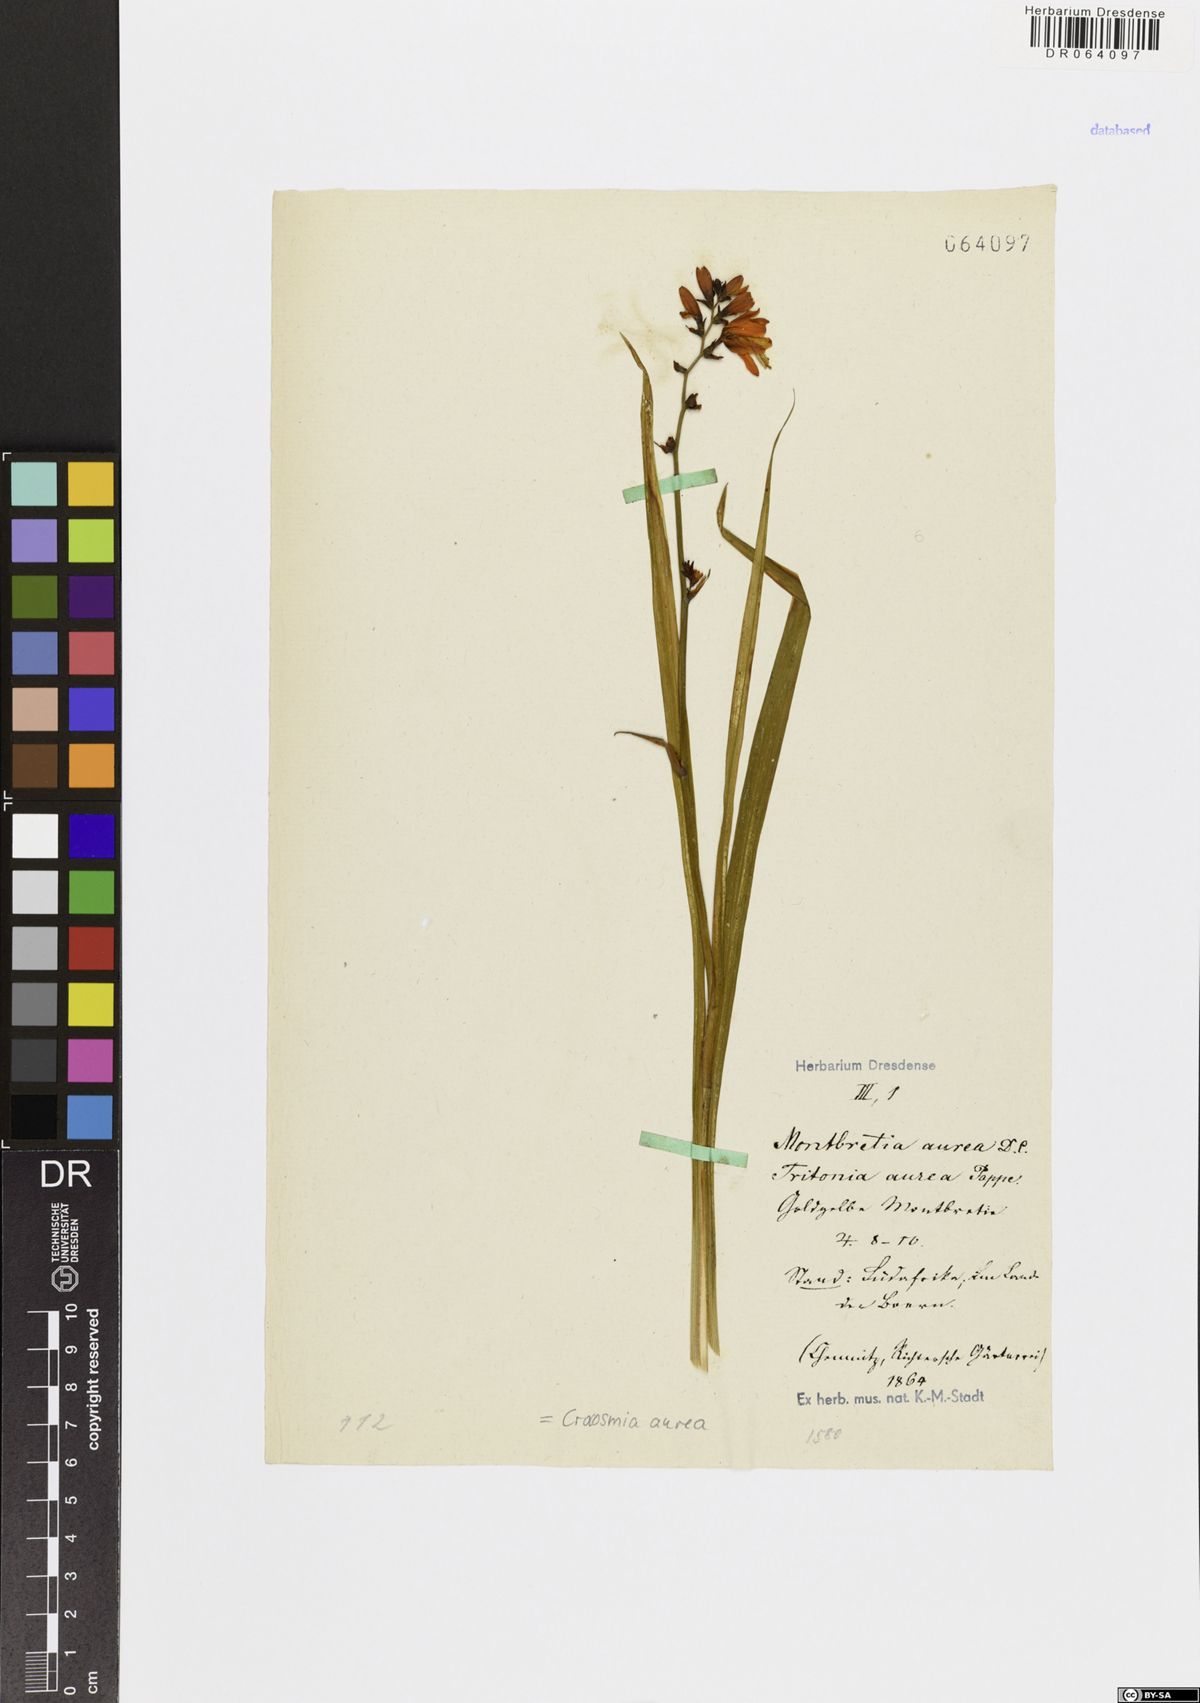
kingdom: Plantae
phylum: Tracheophyta
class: Liliopsida
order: Asparagales
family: Iridaceae
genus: Crocosmia
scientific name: Crocosmia aurea
